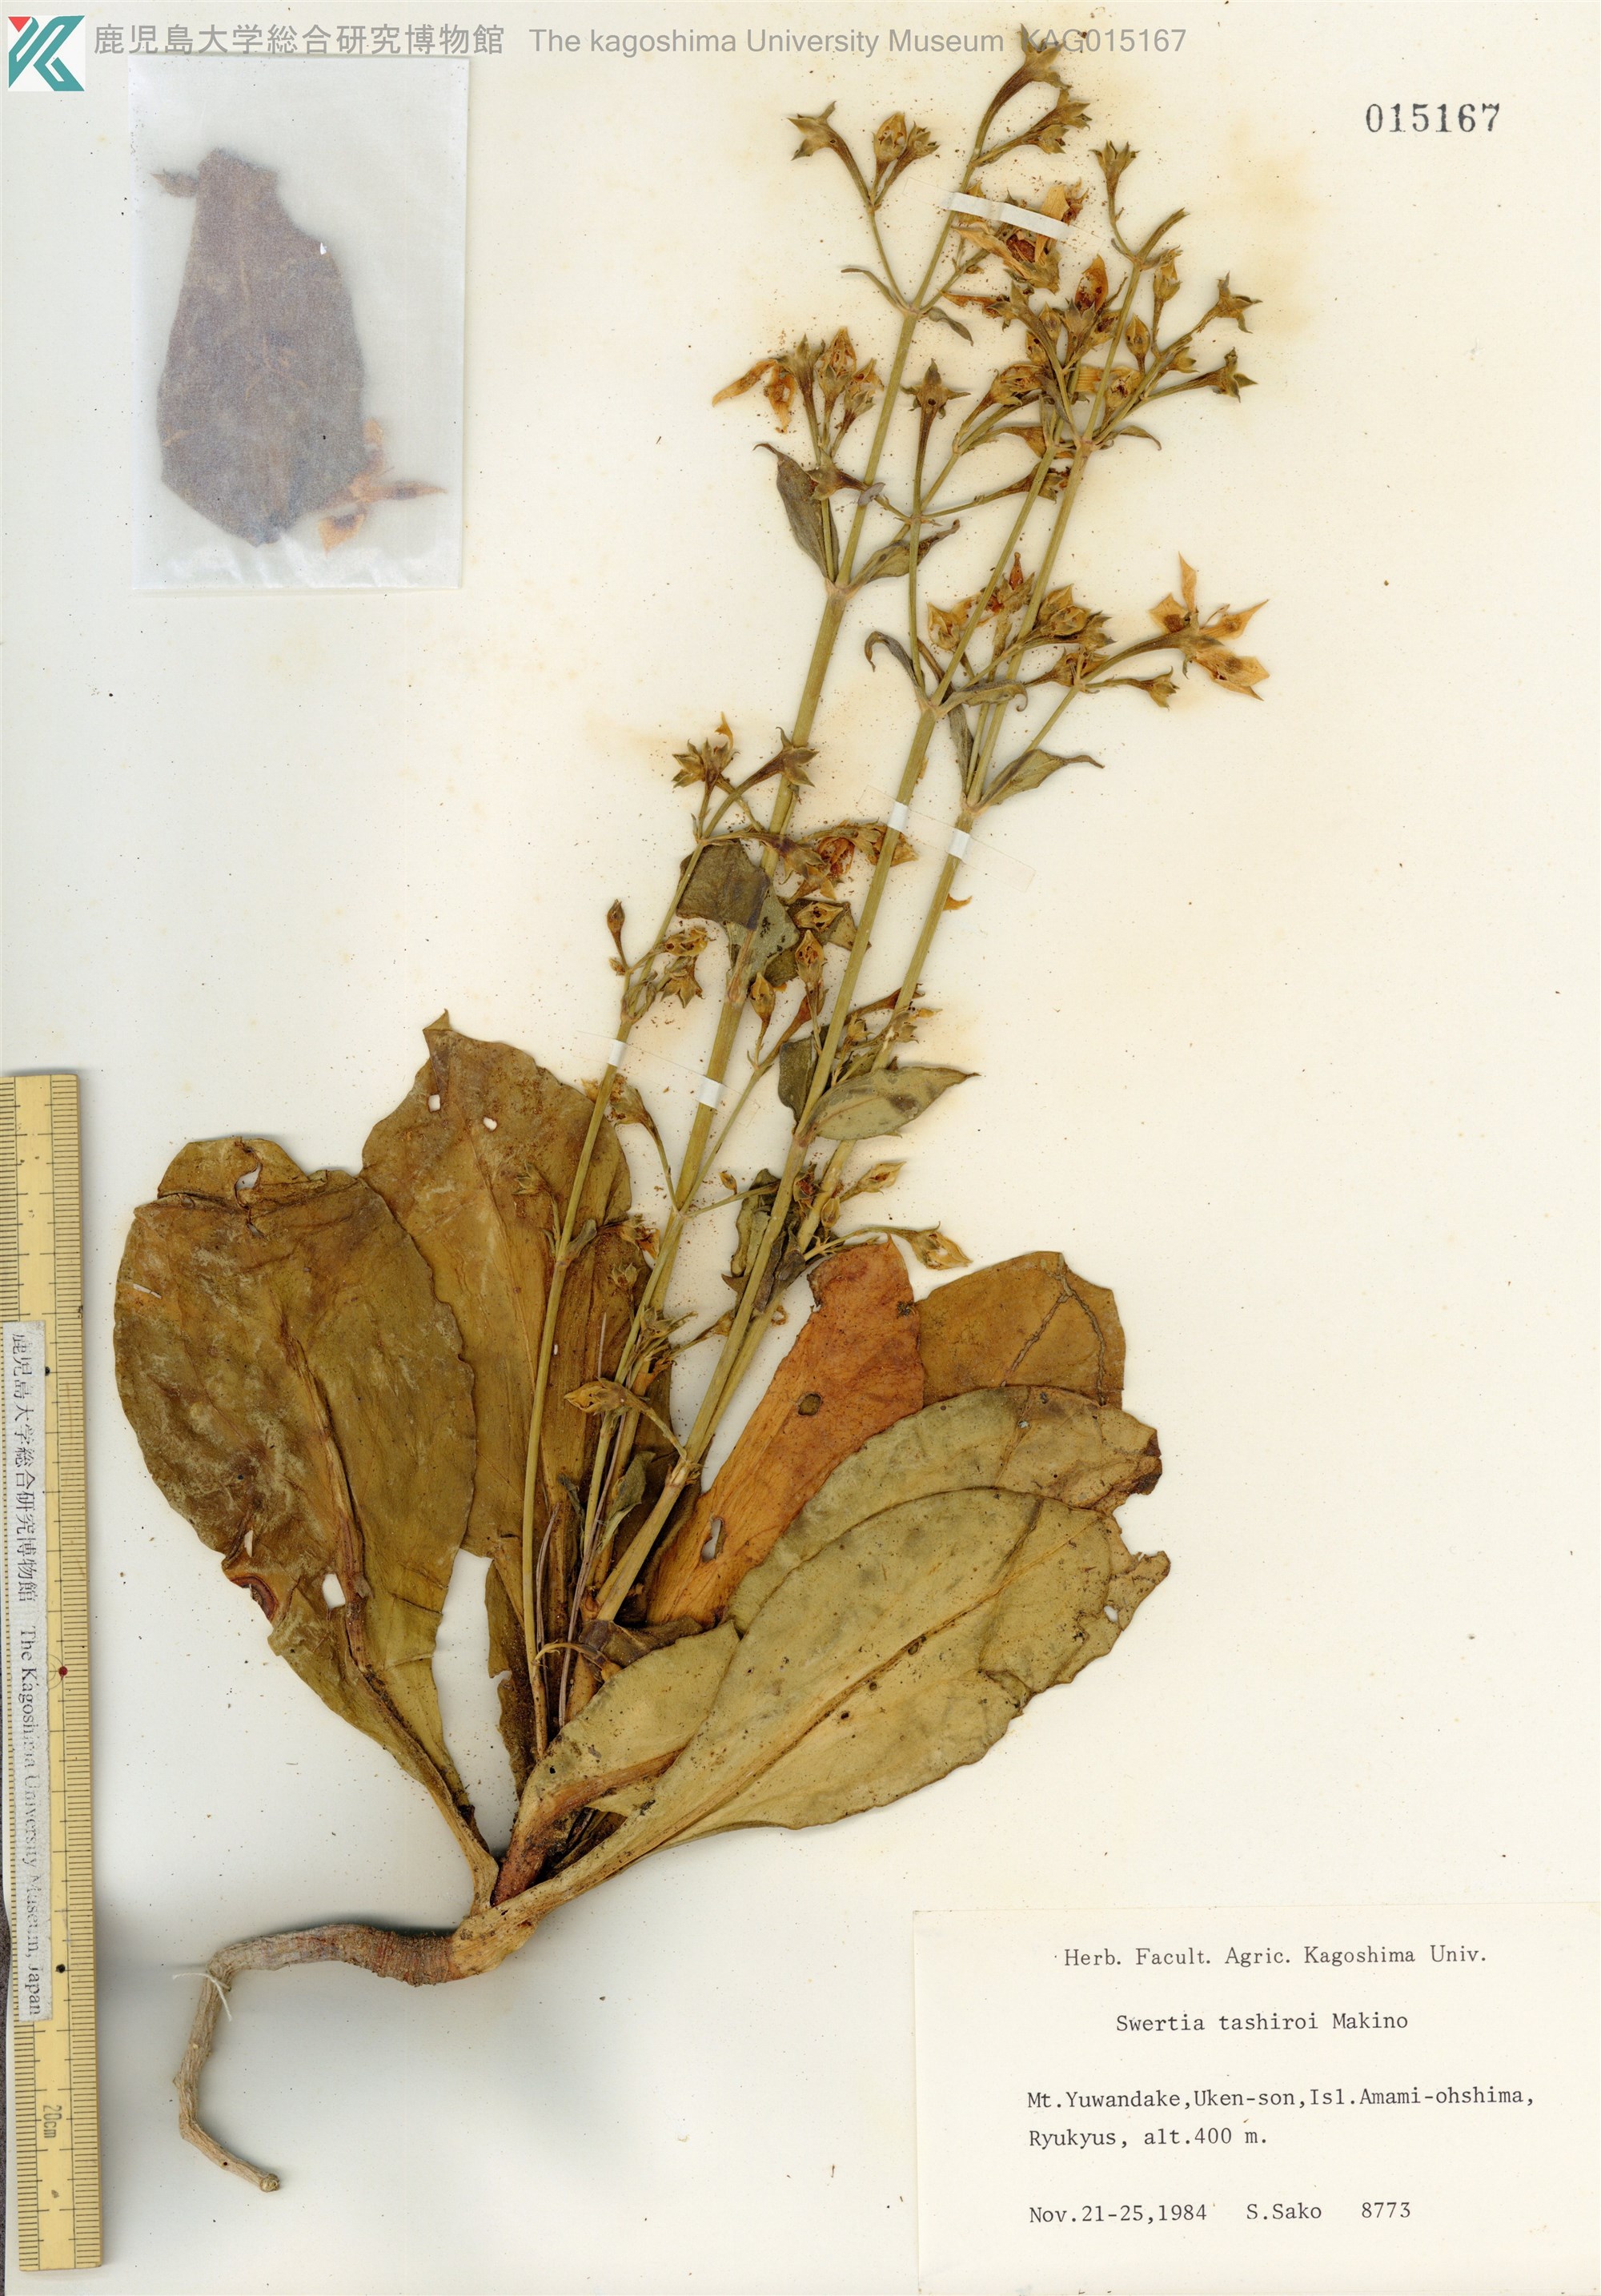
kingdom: Plantae
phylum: Tracheophyta
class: Magnoliopsida
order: Gentianales
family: Gentianaceae
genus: Swertia
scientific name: Swertia tashiroi
